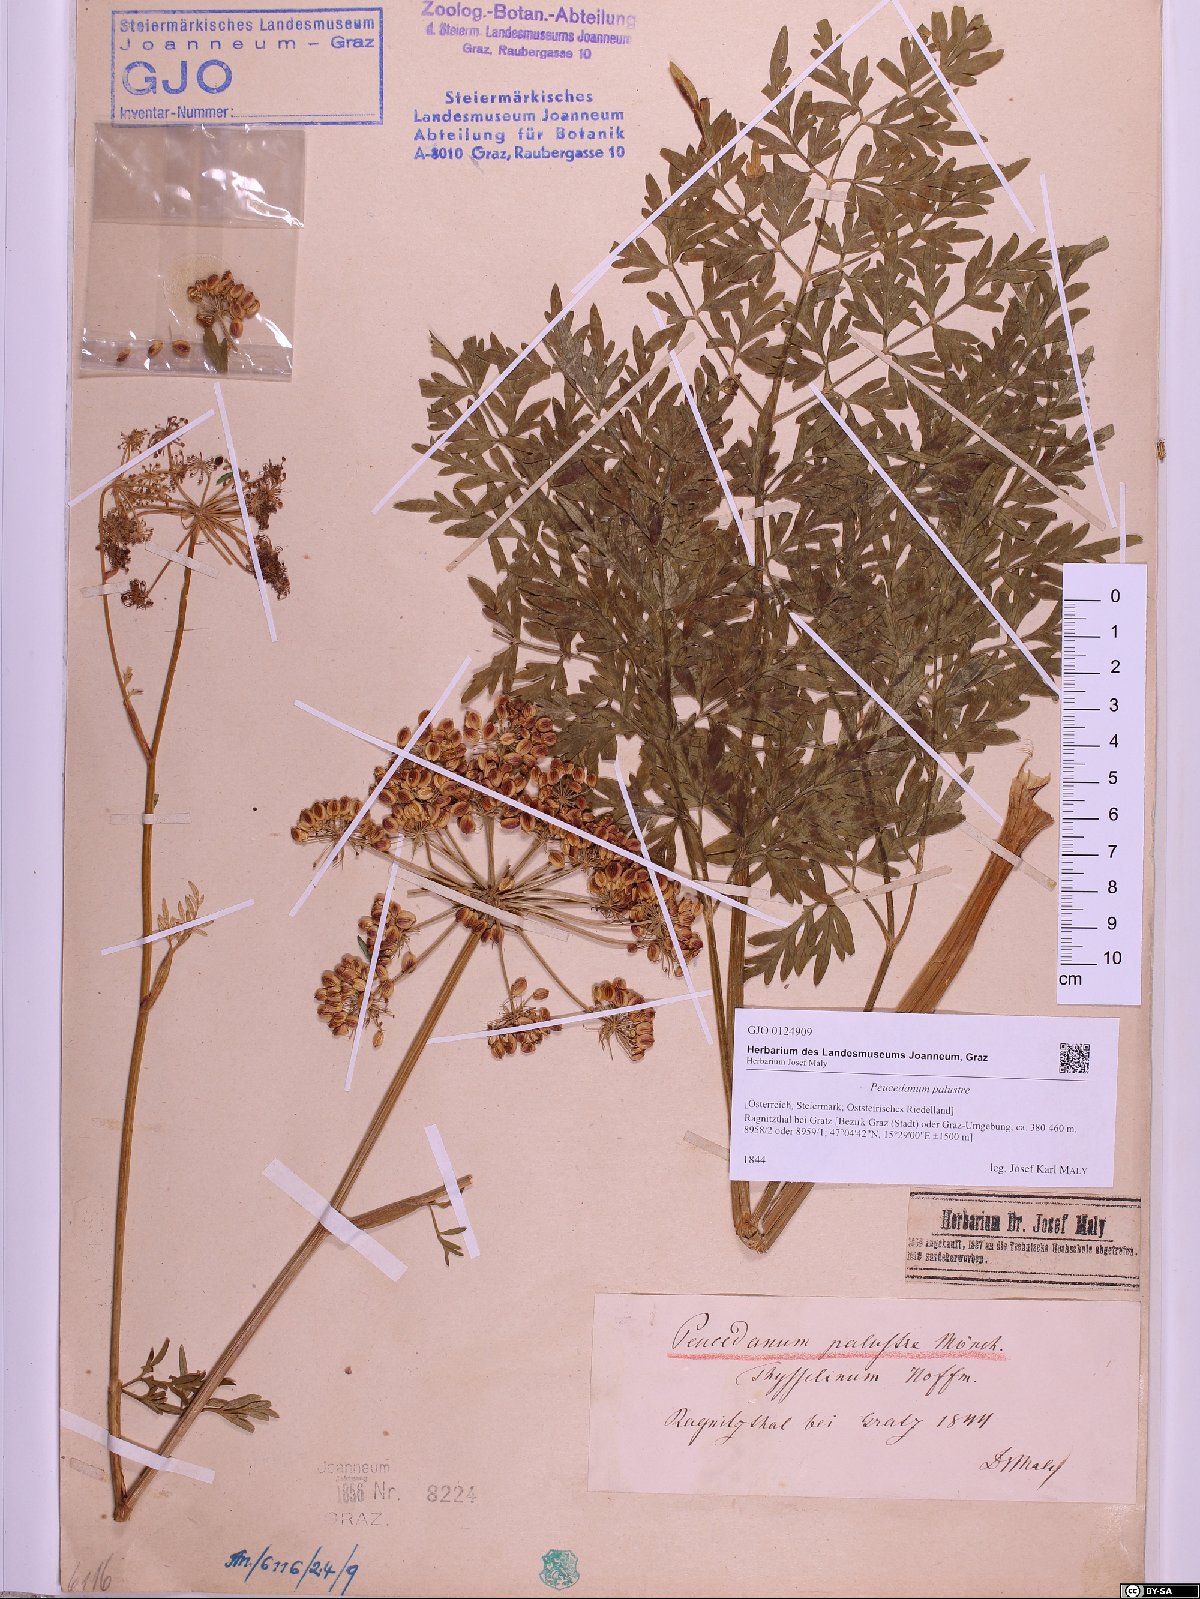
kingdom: Plantae
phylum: Tracheophyta
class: Magnoliopsida
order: Apiales
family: Apiaceae
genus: Thysselinum
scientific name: Thysselinum palustre
